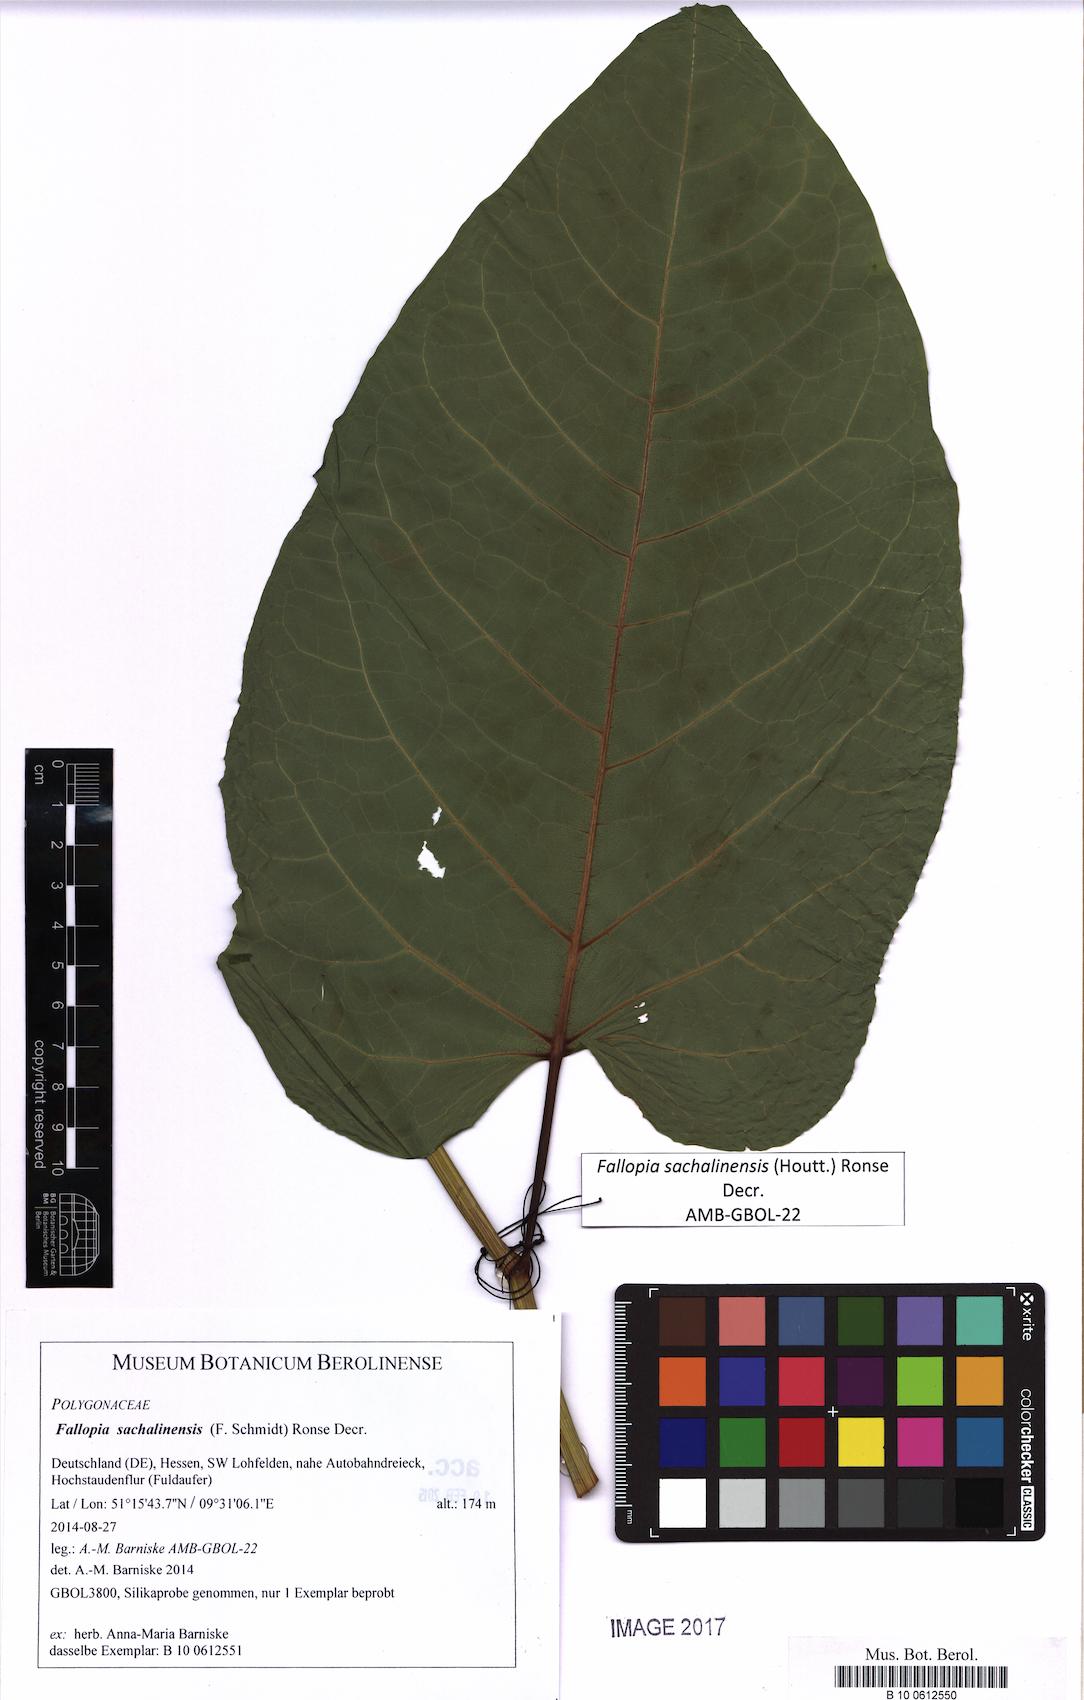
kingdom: Plantae
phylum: Tracheophyta
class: Magnoliopsida
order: Caryophyllales
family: Polygonaceae
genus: Reynoutria
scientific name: Reynoutria sachalinensis
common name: Giant knotweed
